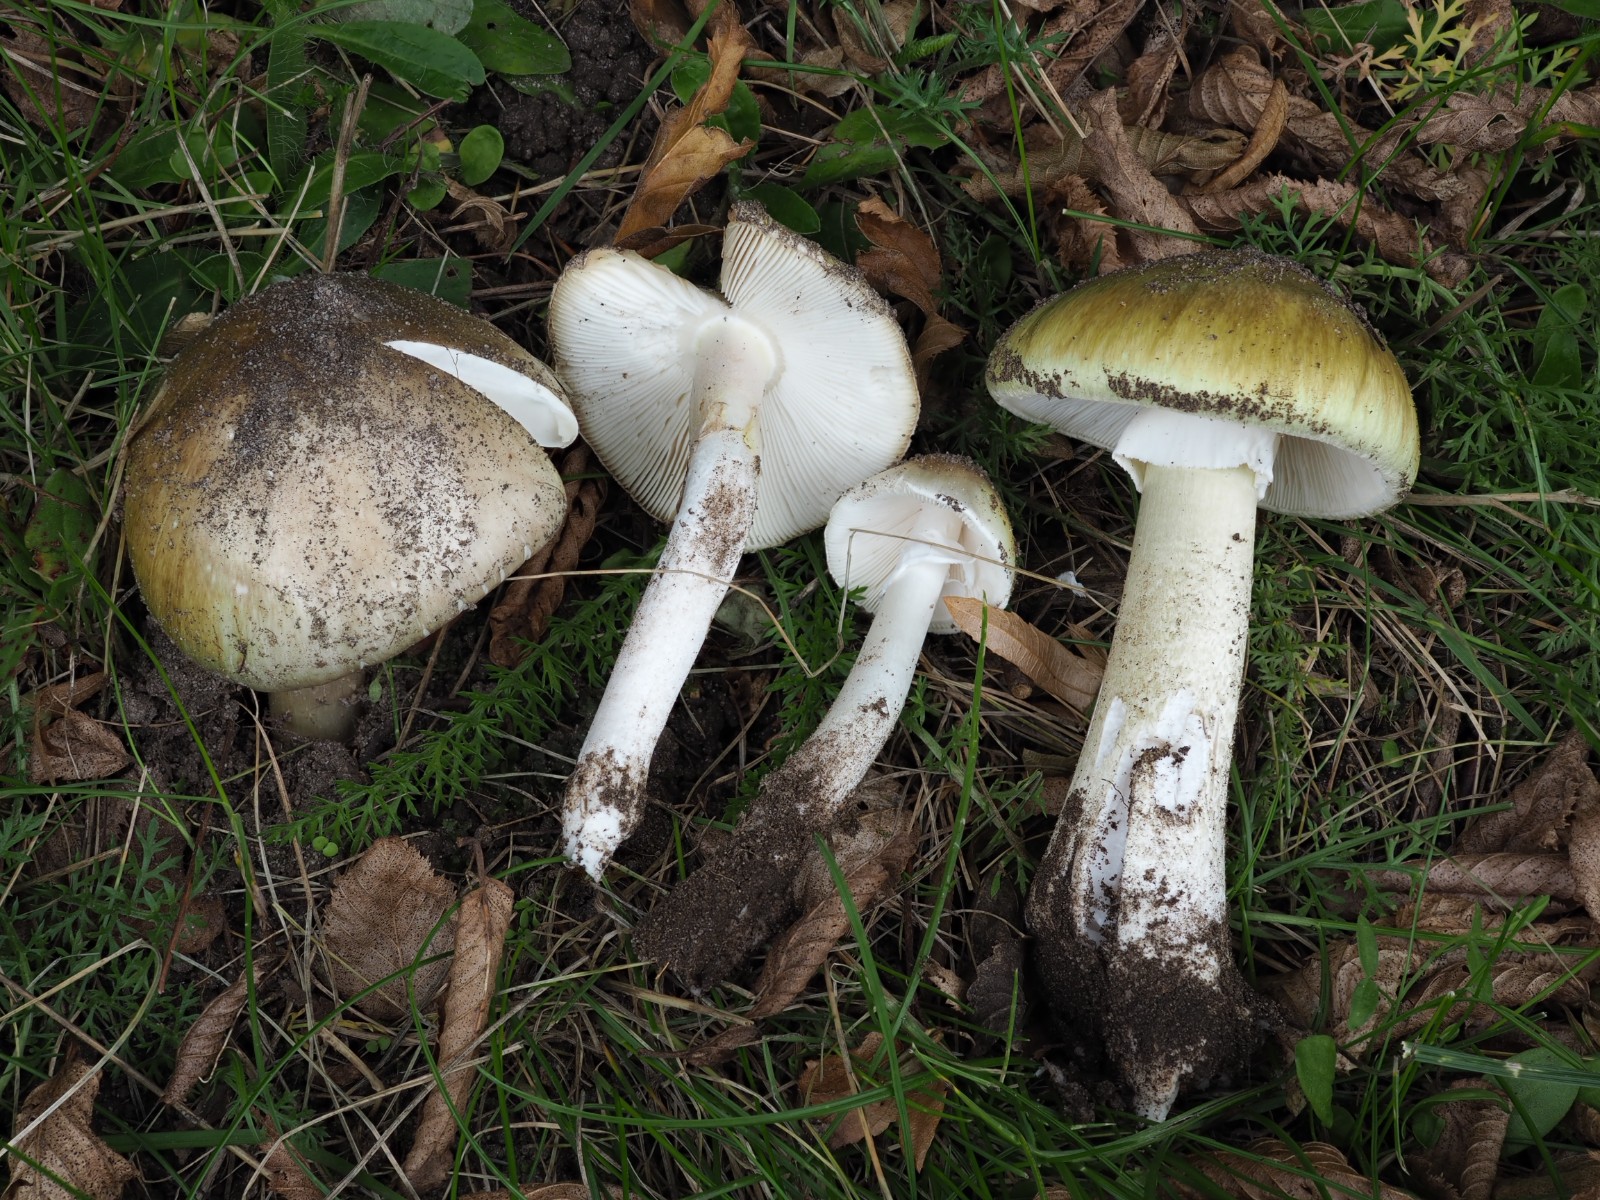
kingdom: Fungi
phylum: Basidiomycota
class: Agaricomycetes
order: Agaricales
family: Amanitaceae
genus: Amanita
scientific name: Amanita phalloides
